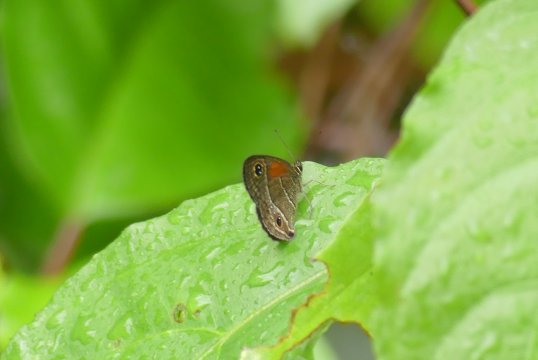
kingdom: Animalia
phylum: Arthropoda
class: Insecta
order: Lepidoptera
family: Nymphalidae
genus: Calisto
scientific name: Calisto confusa
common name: Confused Calisto
